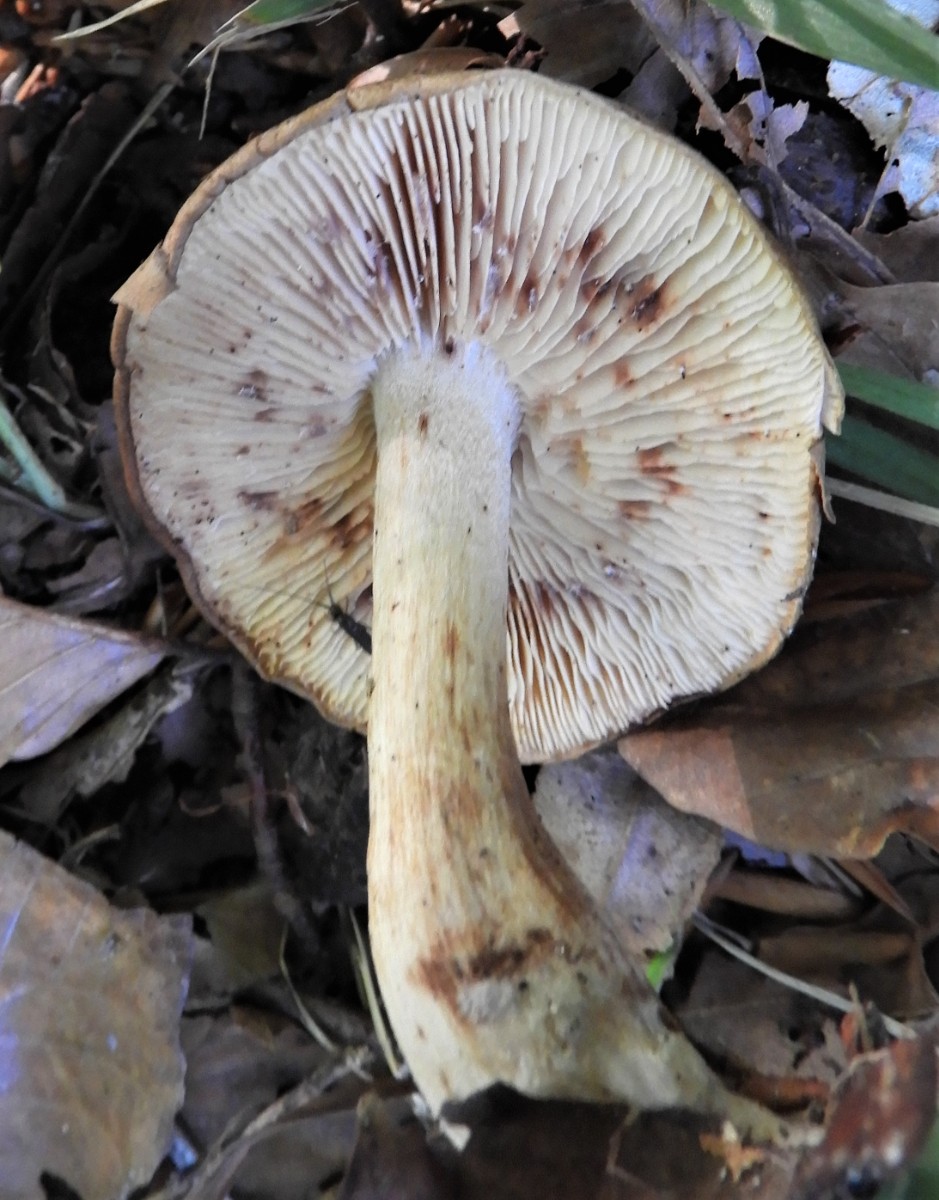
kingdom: Fungi
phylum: Basidiomycota
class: Agaricomycetes
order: Agaricales
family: Tricholomataceae
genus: Tricholoma
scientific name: Tricholoma ustale
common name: sveden ridderhat
